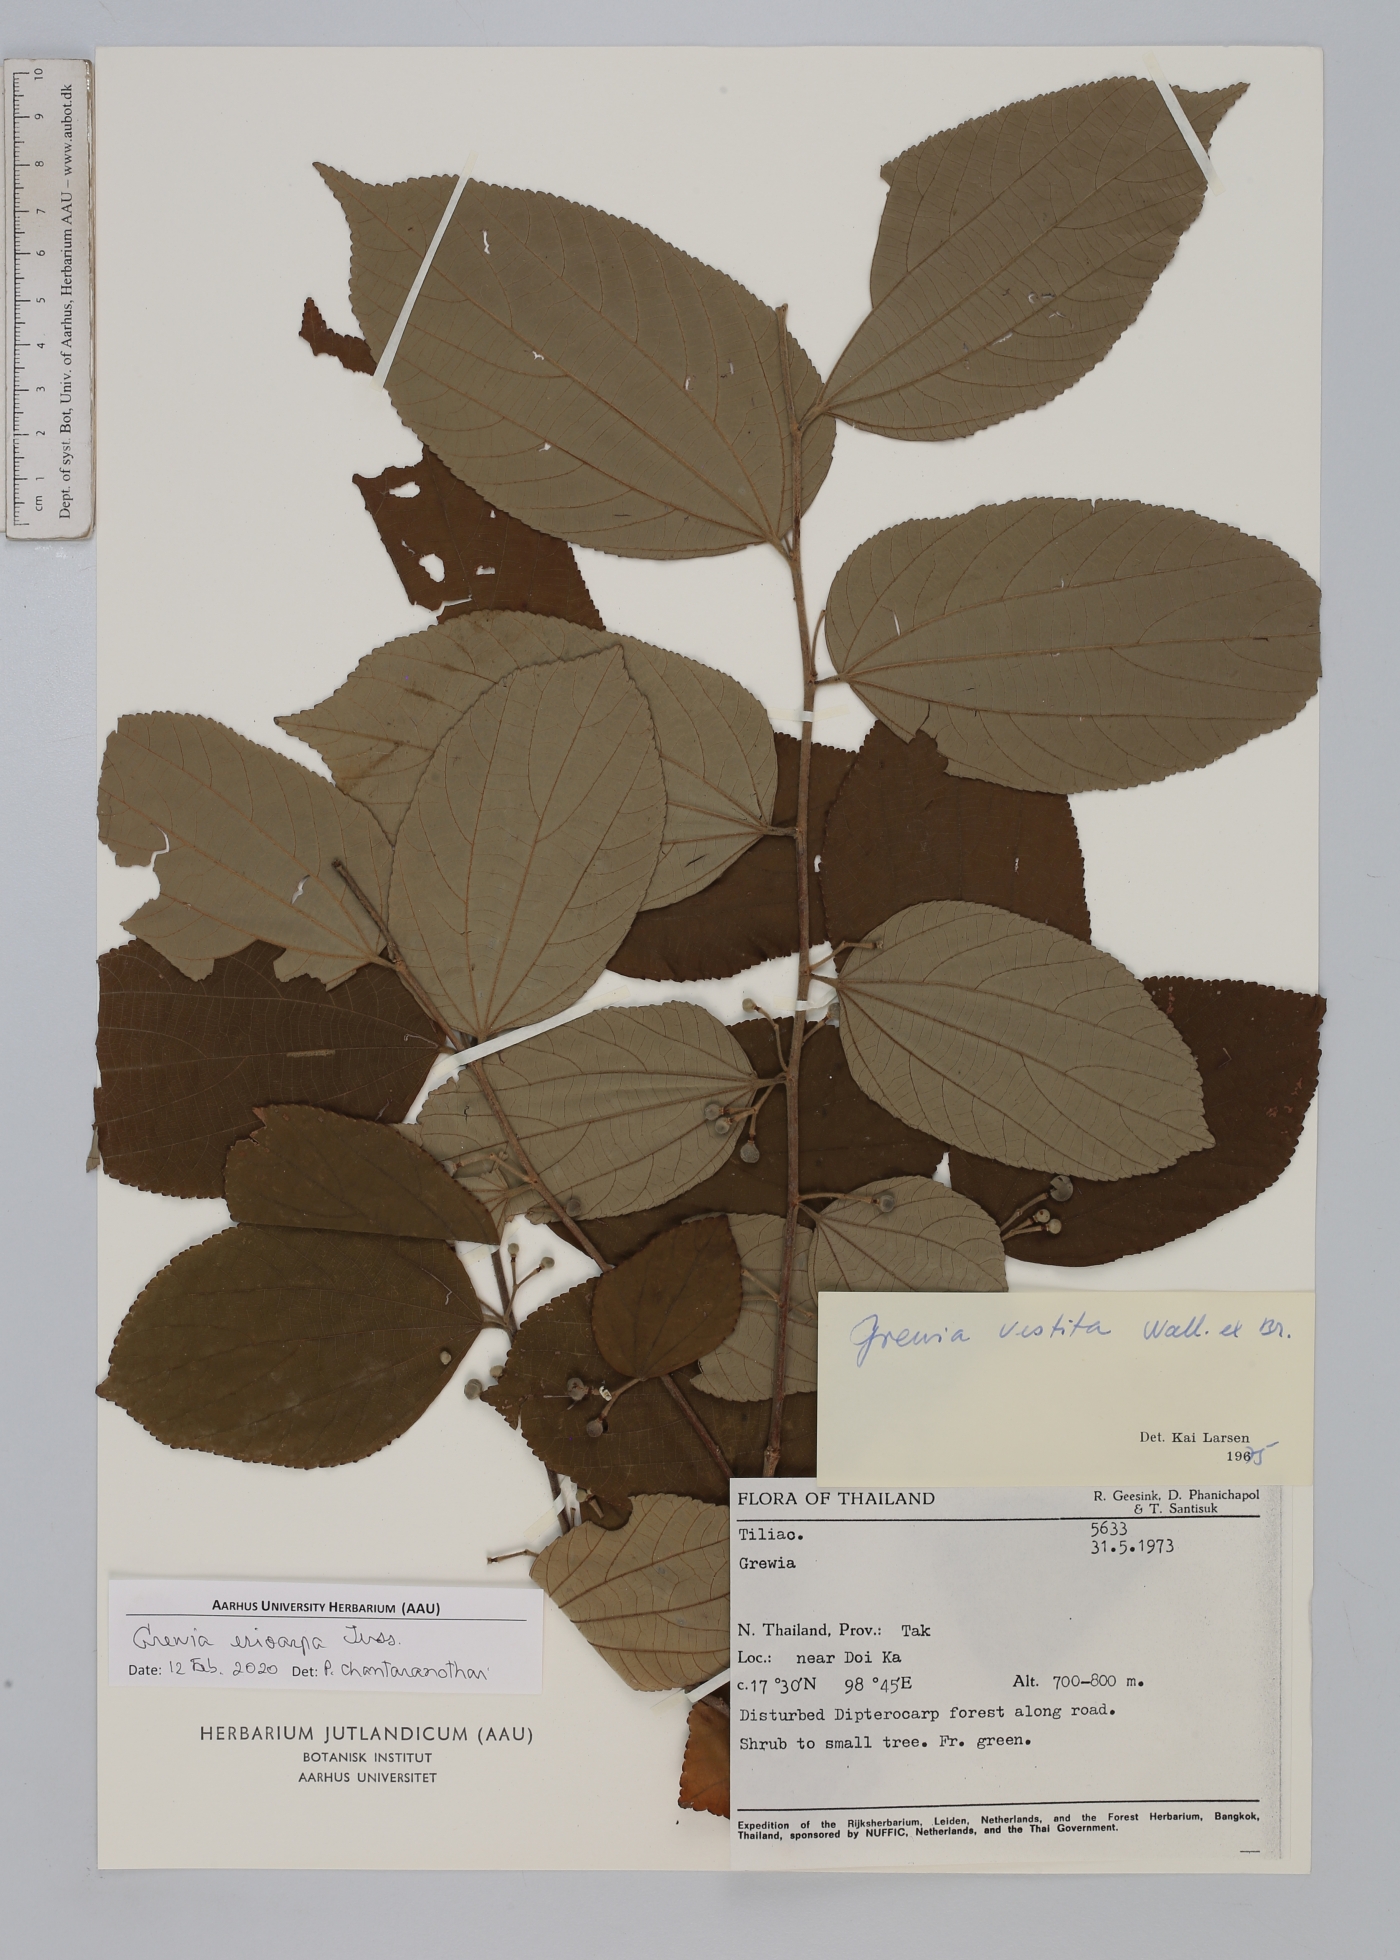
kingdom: Plantae
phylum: Tracheophyta
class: Magnoliopsida
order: Malvales
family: Malvaceae
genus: Grewia
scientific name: Grewia eriocarpa
